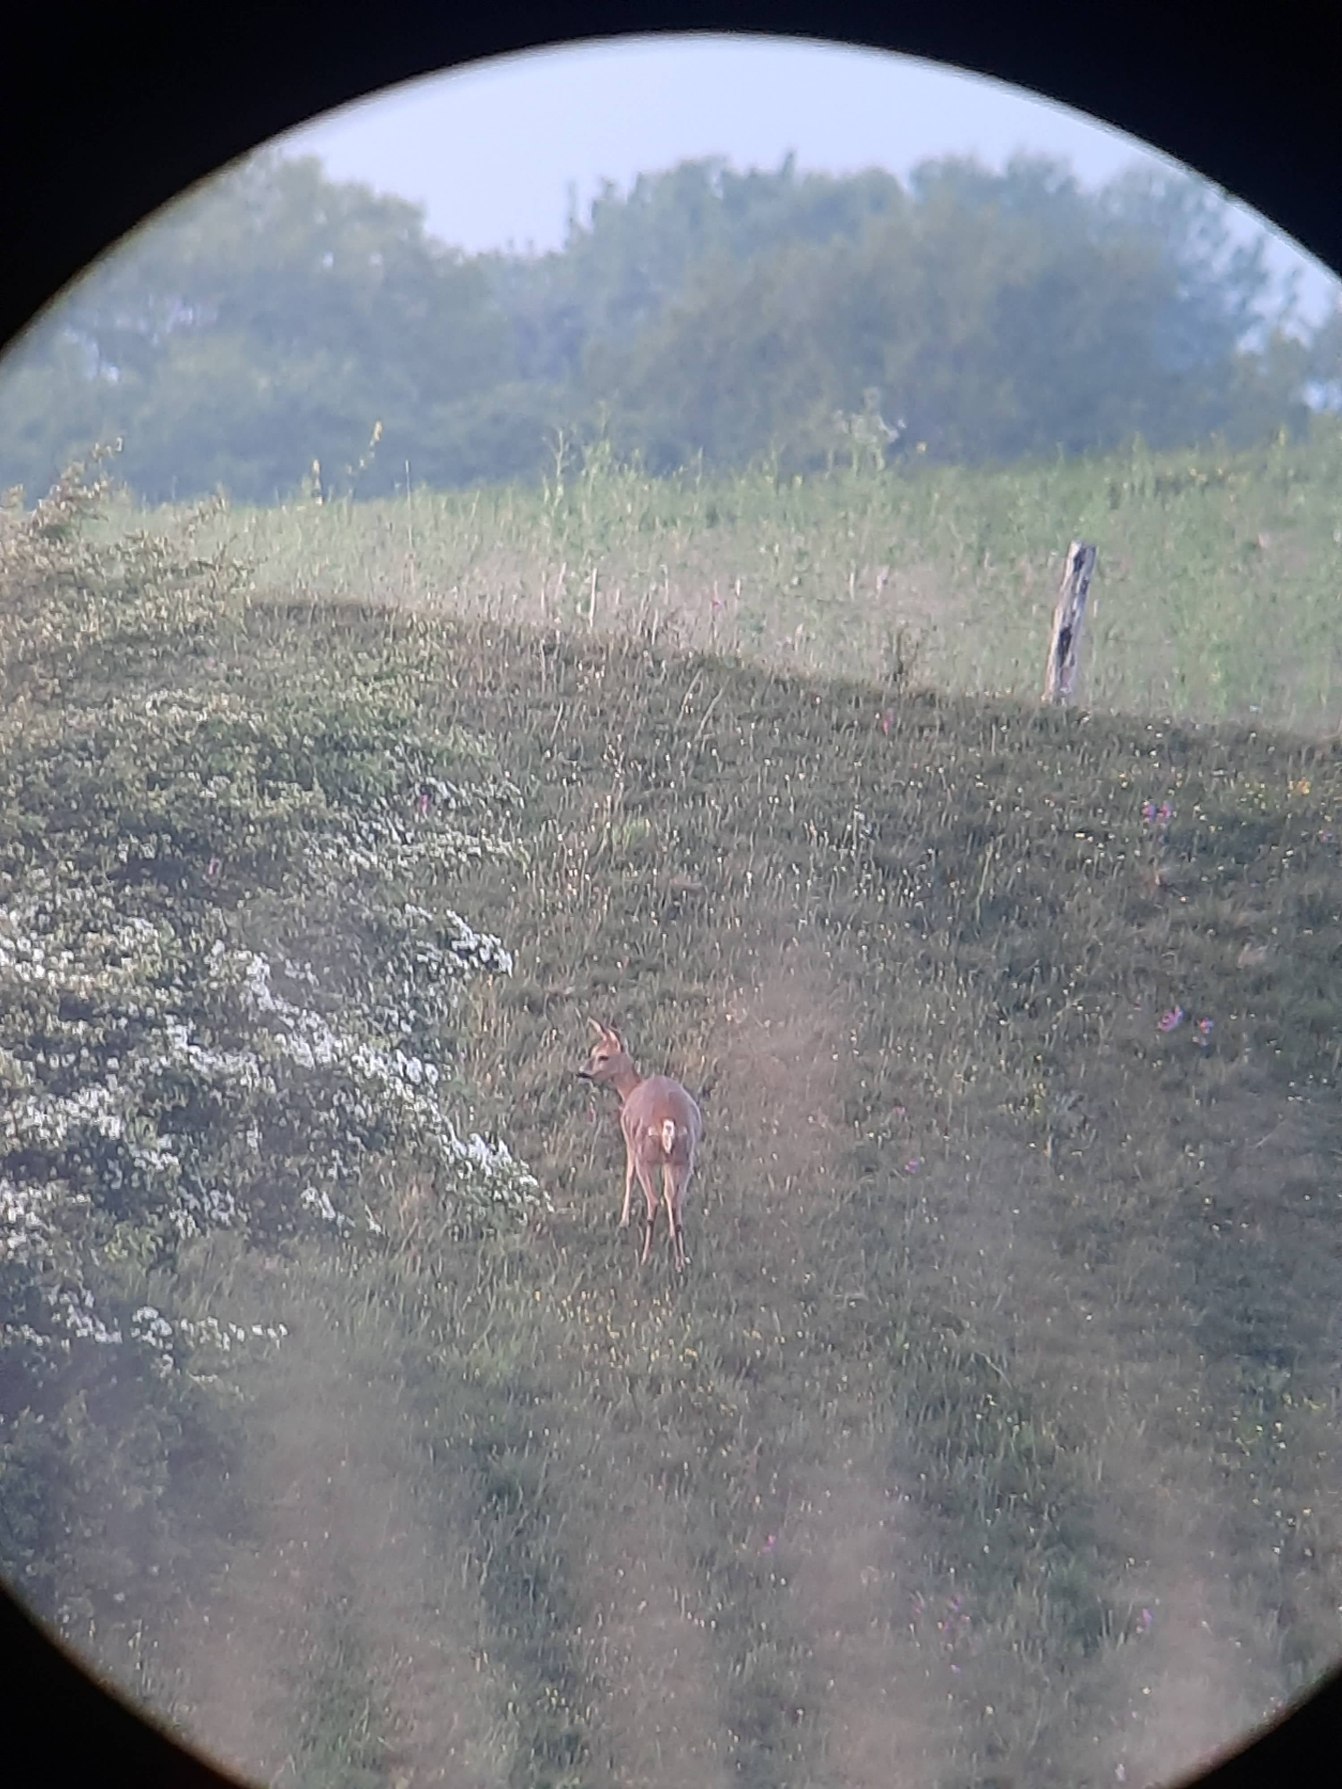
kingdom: Animalia
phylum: Chordata
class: Mammalia
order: Artiodactyla
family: Cervidae
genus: Capreolus
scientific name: Capreolus capreolus
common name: Rådyr
